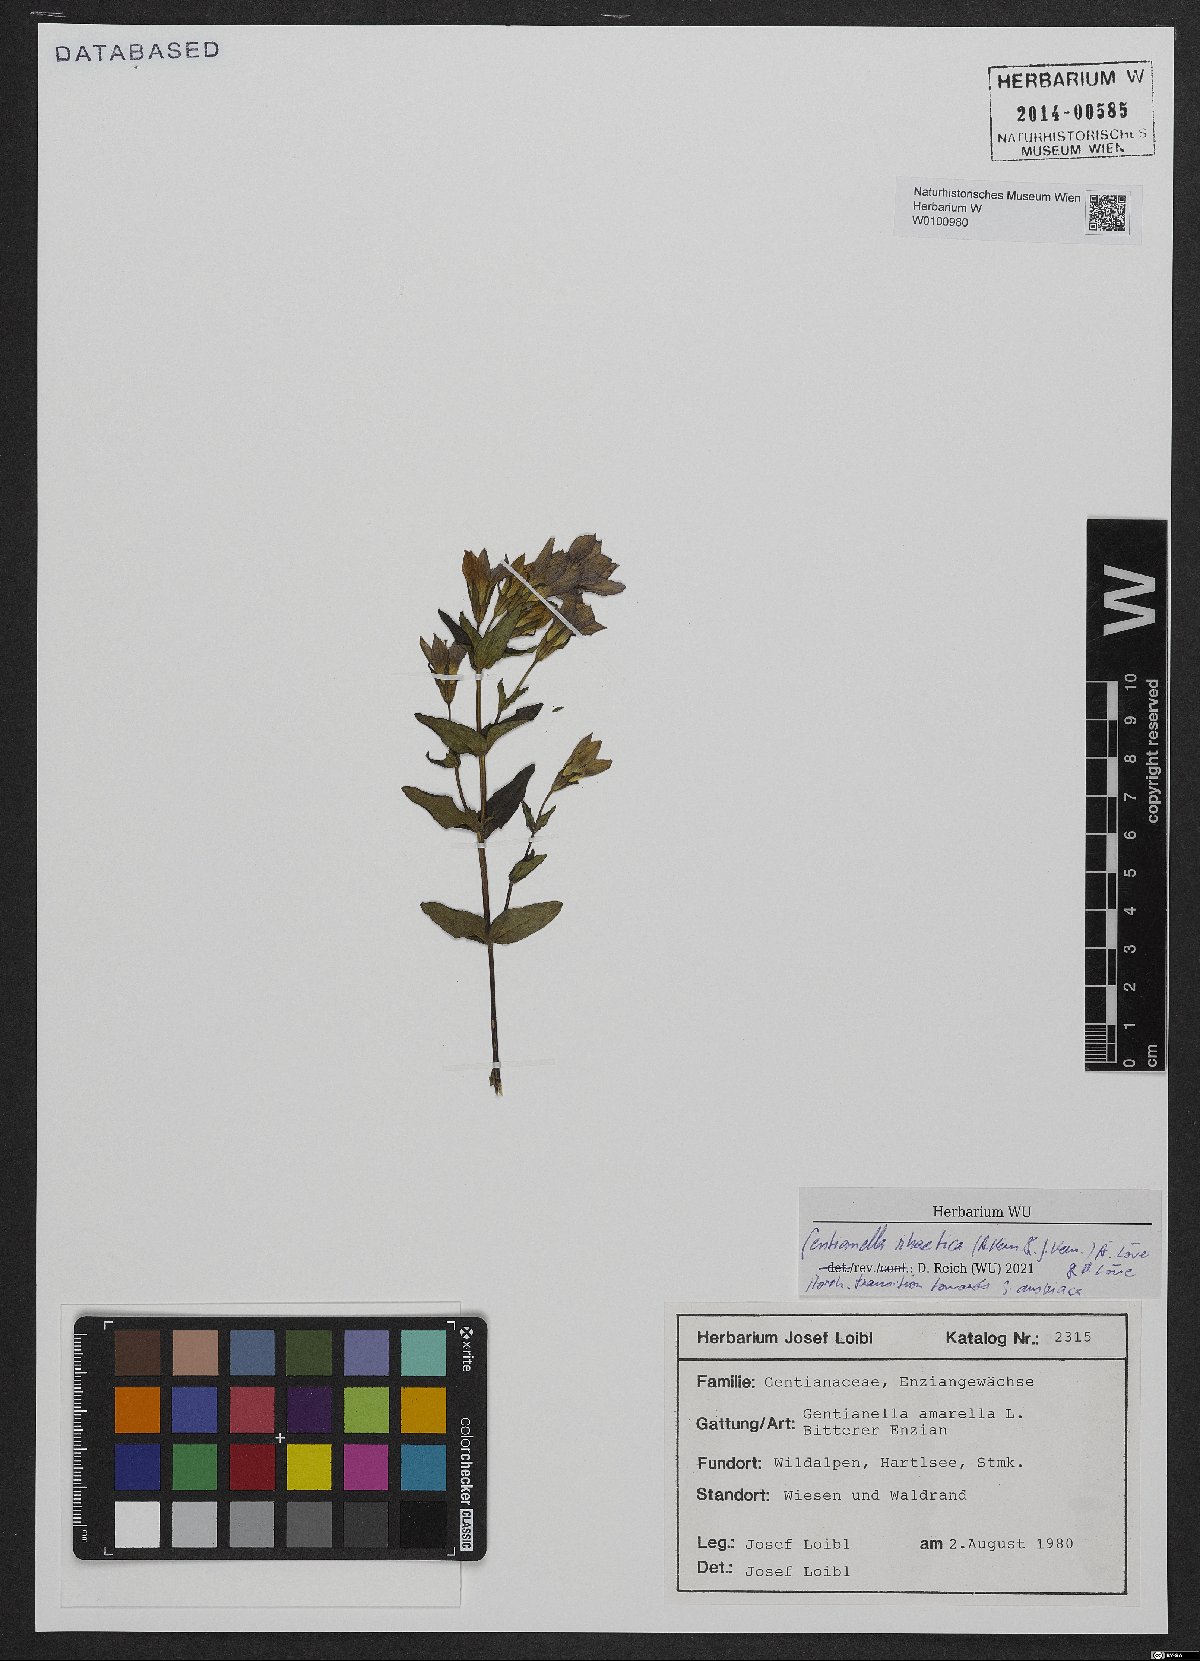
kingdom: Plantae
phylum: Tracheophyta
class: Magnoliopsida
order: Gentianales
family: Gentianaceae
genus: Gentianella
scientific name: Gentianella rhaetica
